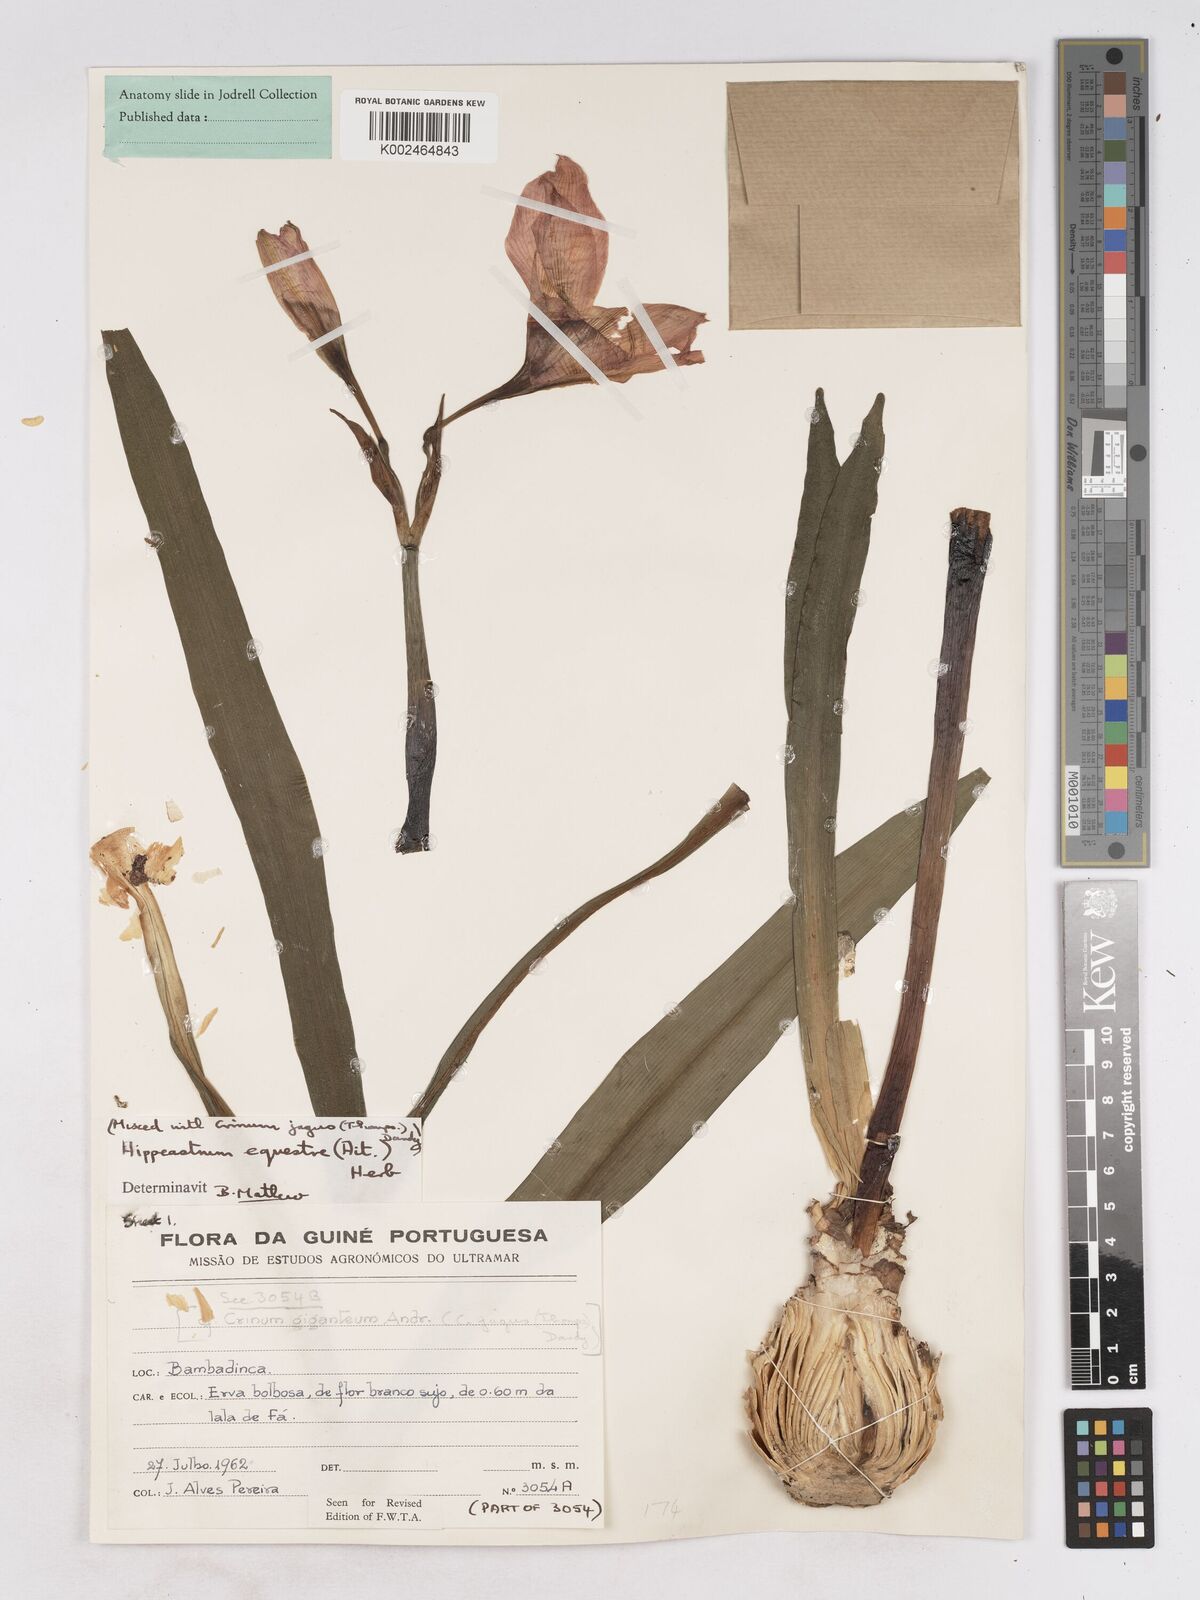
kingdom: Plantae
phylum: Tracheophyta
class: Liliopsida
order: Asparagales
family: Amaryllidaceae
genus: Hippeastrum
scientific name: Hippeastrum puniceum
